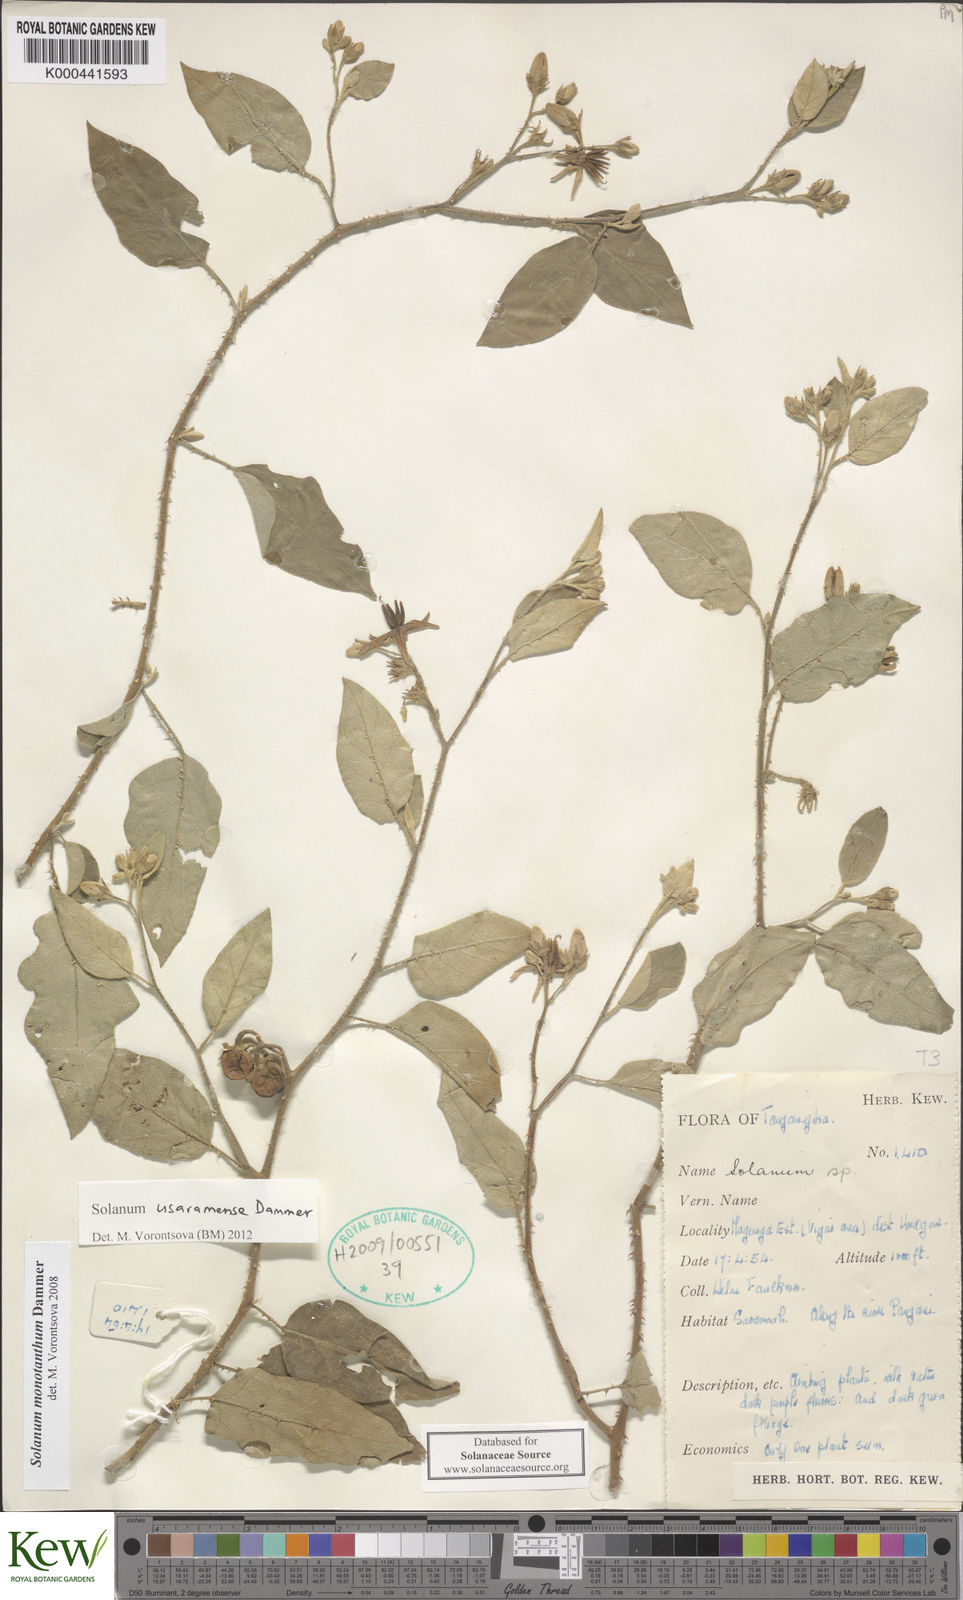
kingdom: Plantae
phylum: Tracheophyta
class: Magnoliopsida
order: Solanales
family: Solanaceae
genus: Solanum
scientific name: Solanum usaramense
